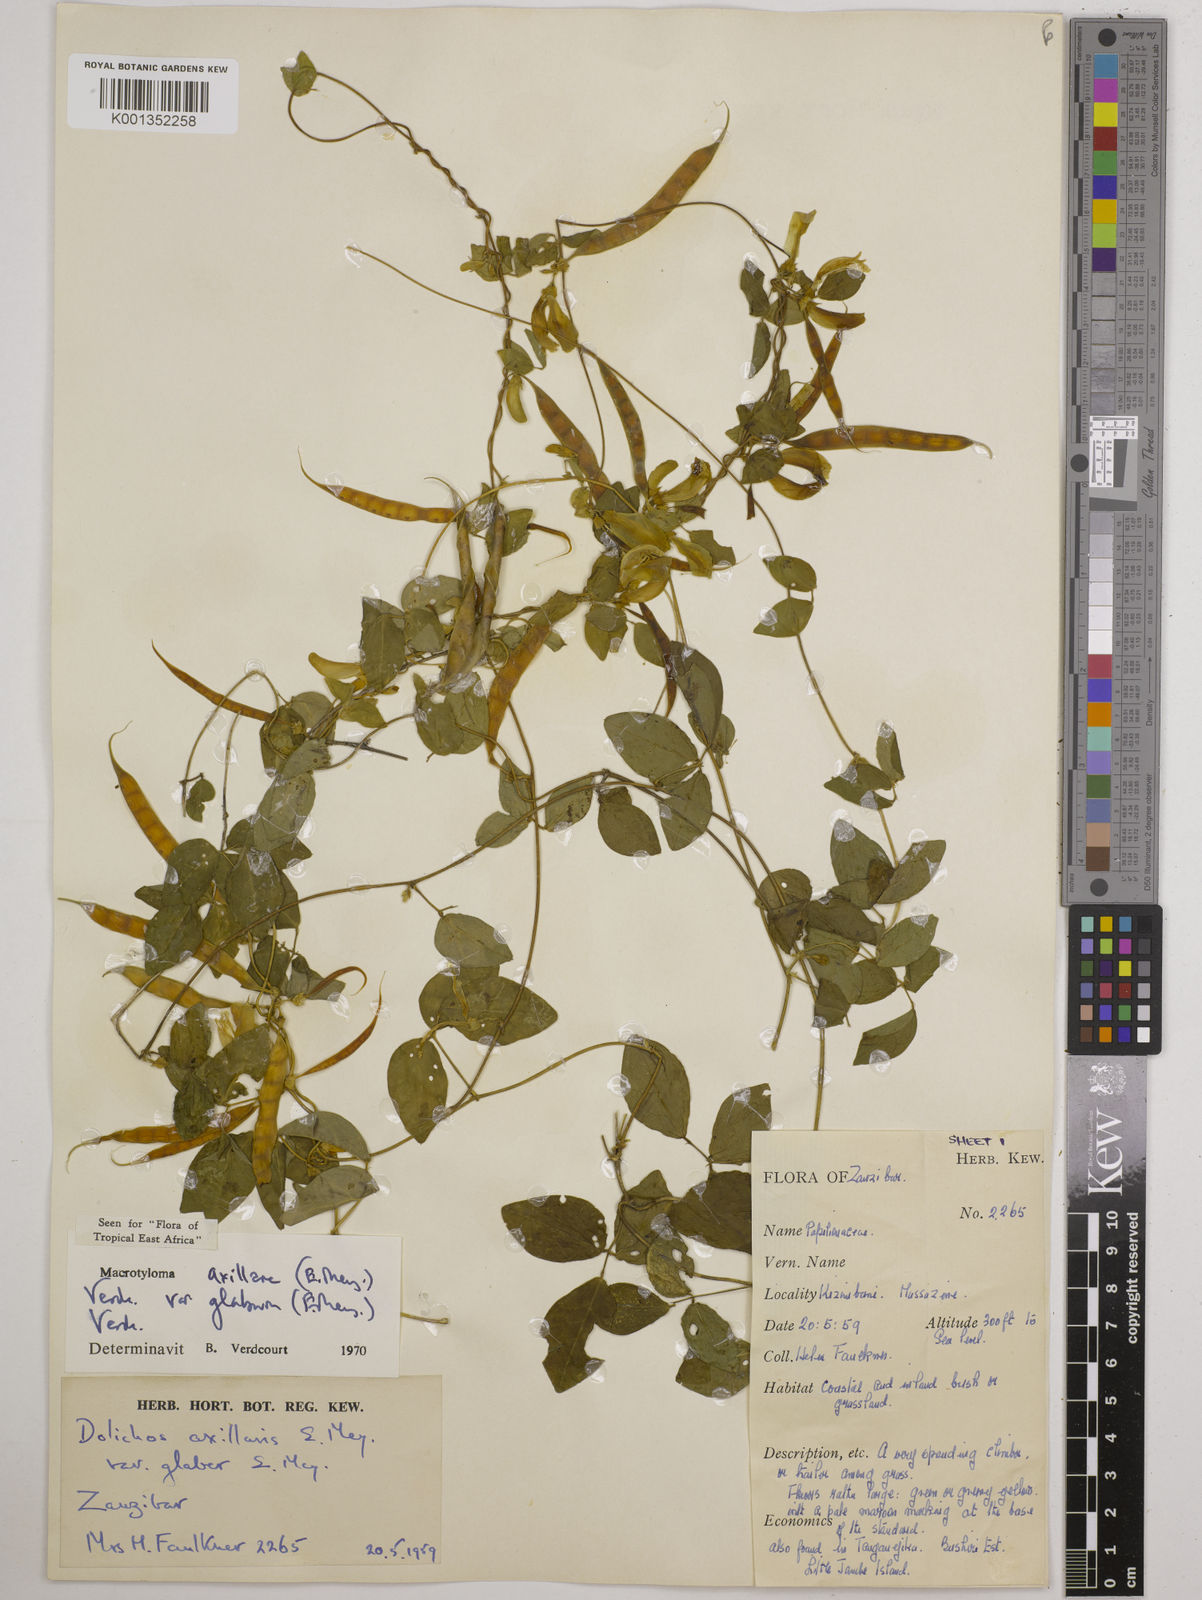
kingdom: Plantae
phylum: Tracheophyta
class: Magnoliopsida
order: Fabales
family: Fabaceae
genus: Macrotyloma
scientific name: Macrotyloma
